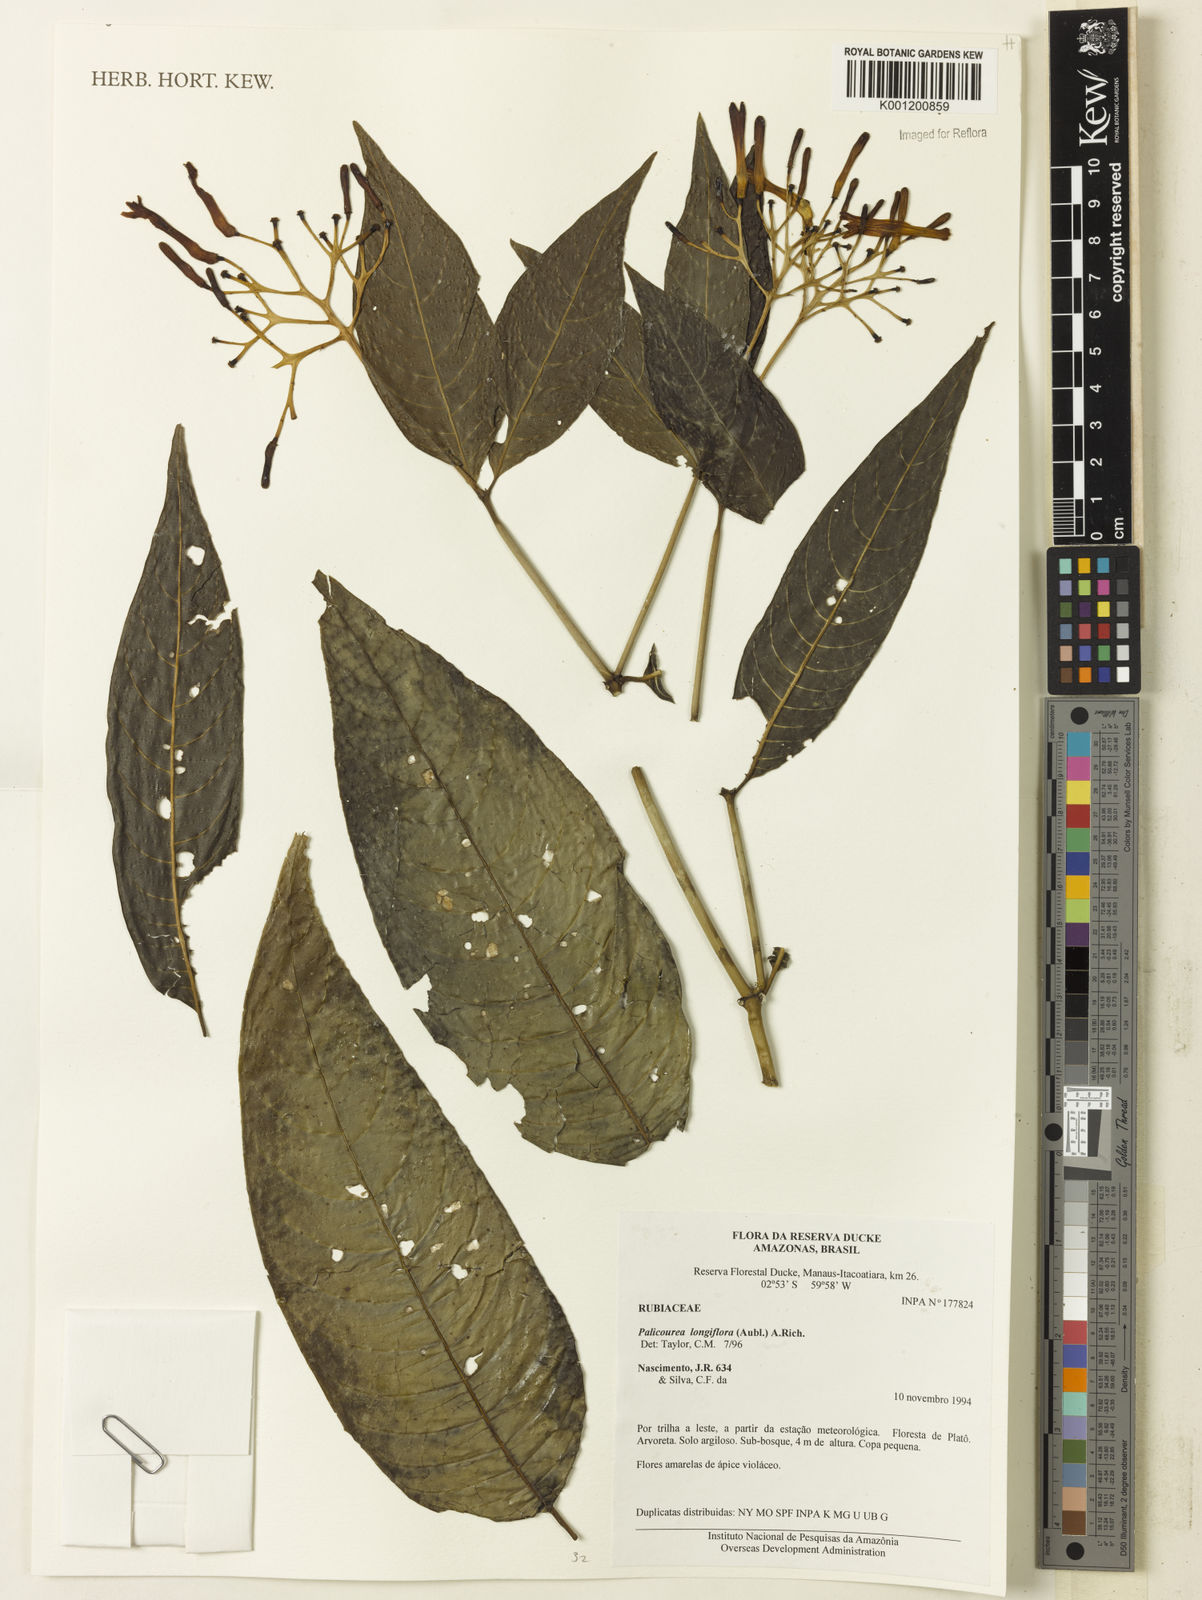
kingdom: Plantae
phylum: Tracheophyta
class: Magnoliopsida
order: Gentianales
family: Rubiaceae
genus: Palicourea
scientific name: Palicourea longiflora
